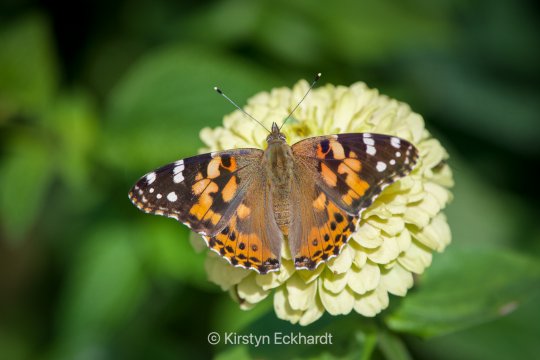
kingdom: Animalia
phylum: Arthropoda
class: Insecta
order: Lepidoptera
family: Nymphalidae
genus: Vanessa
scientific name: Vanessa cardui
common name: Painted Lady
